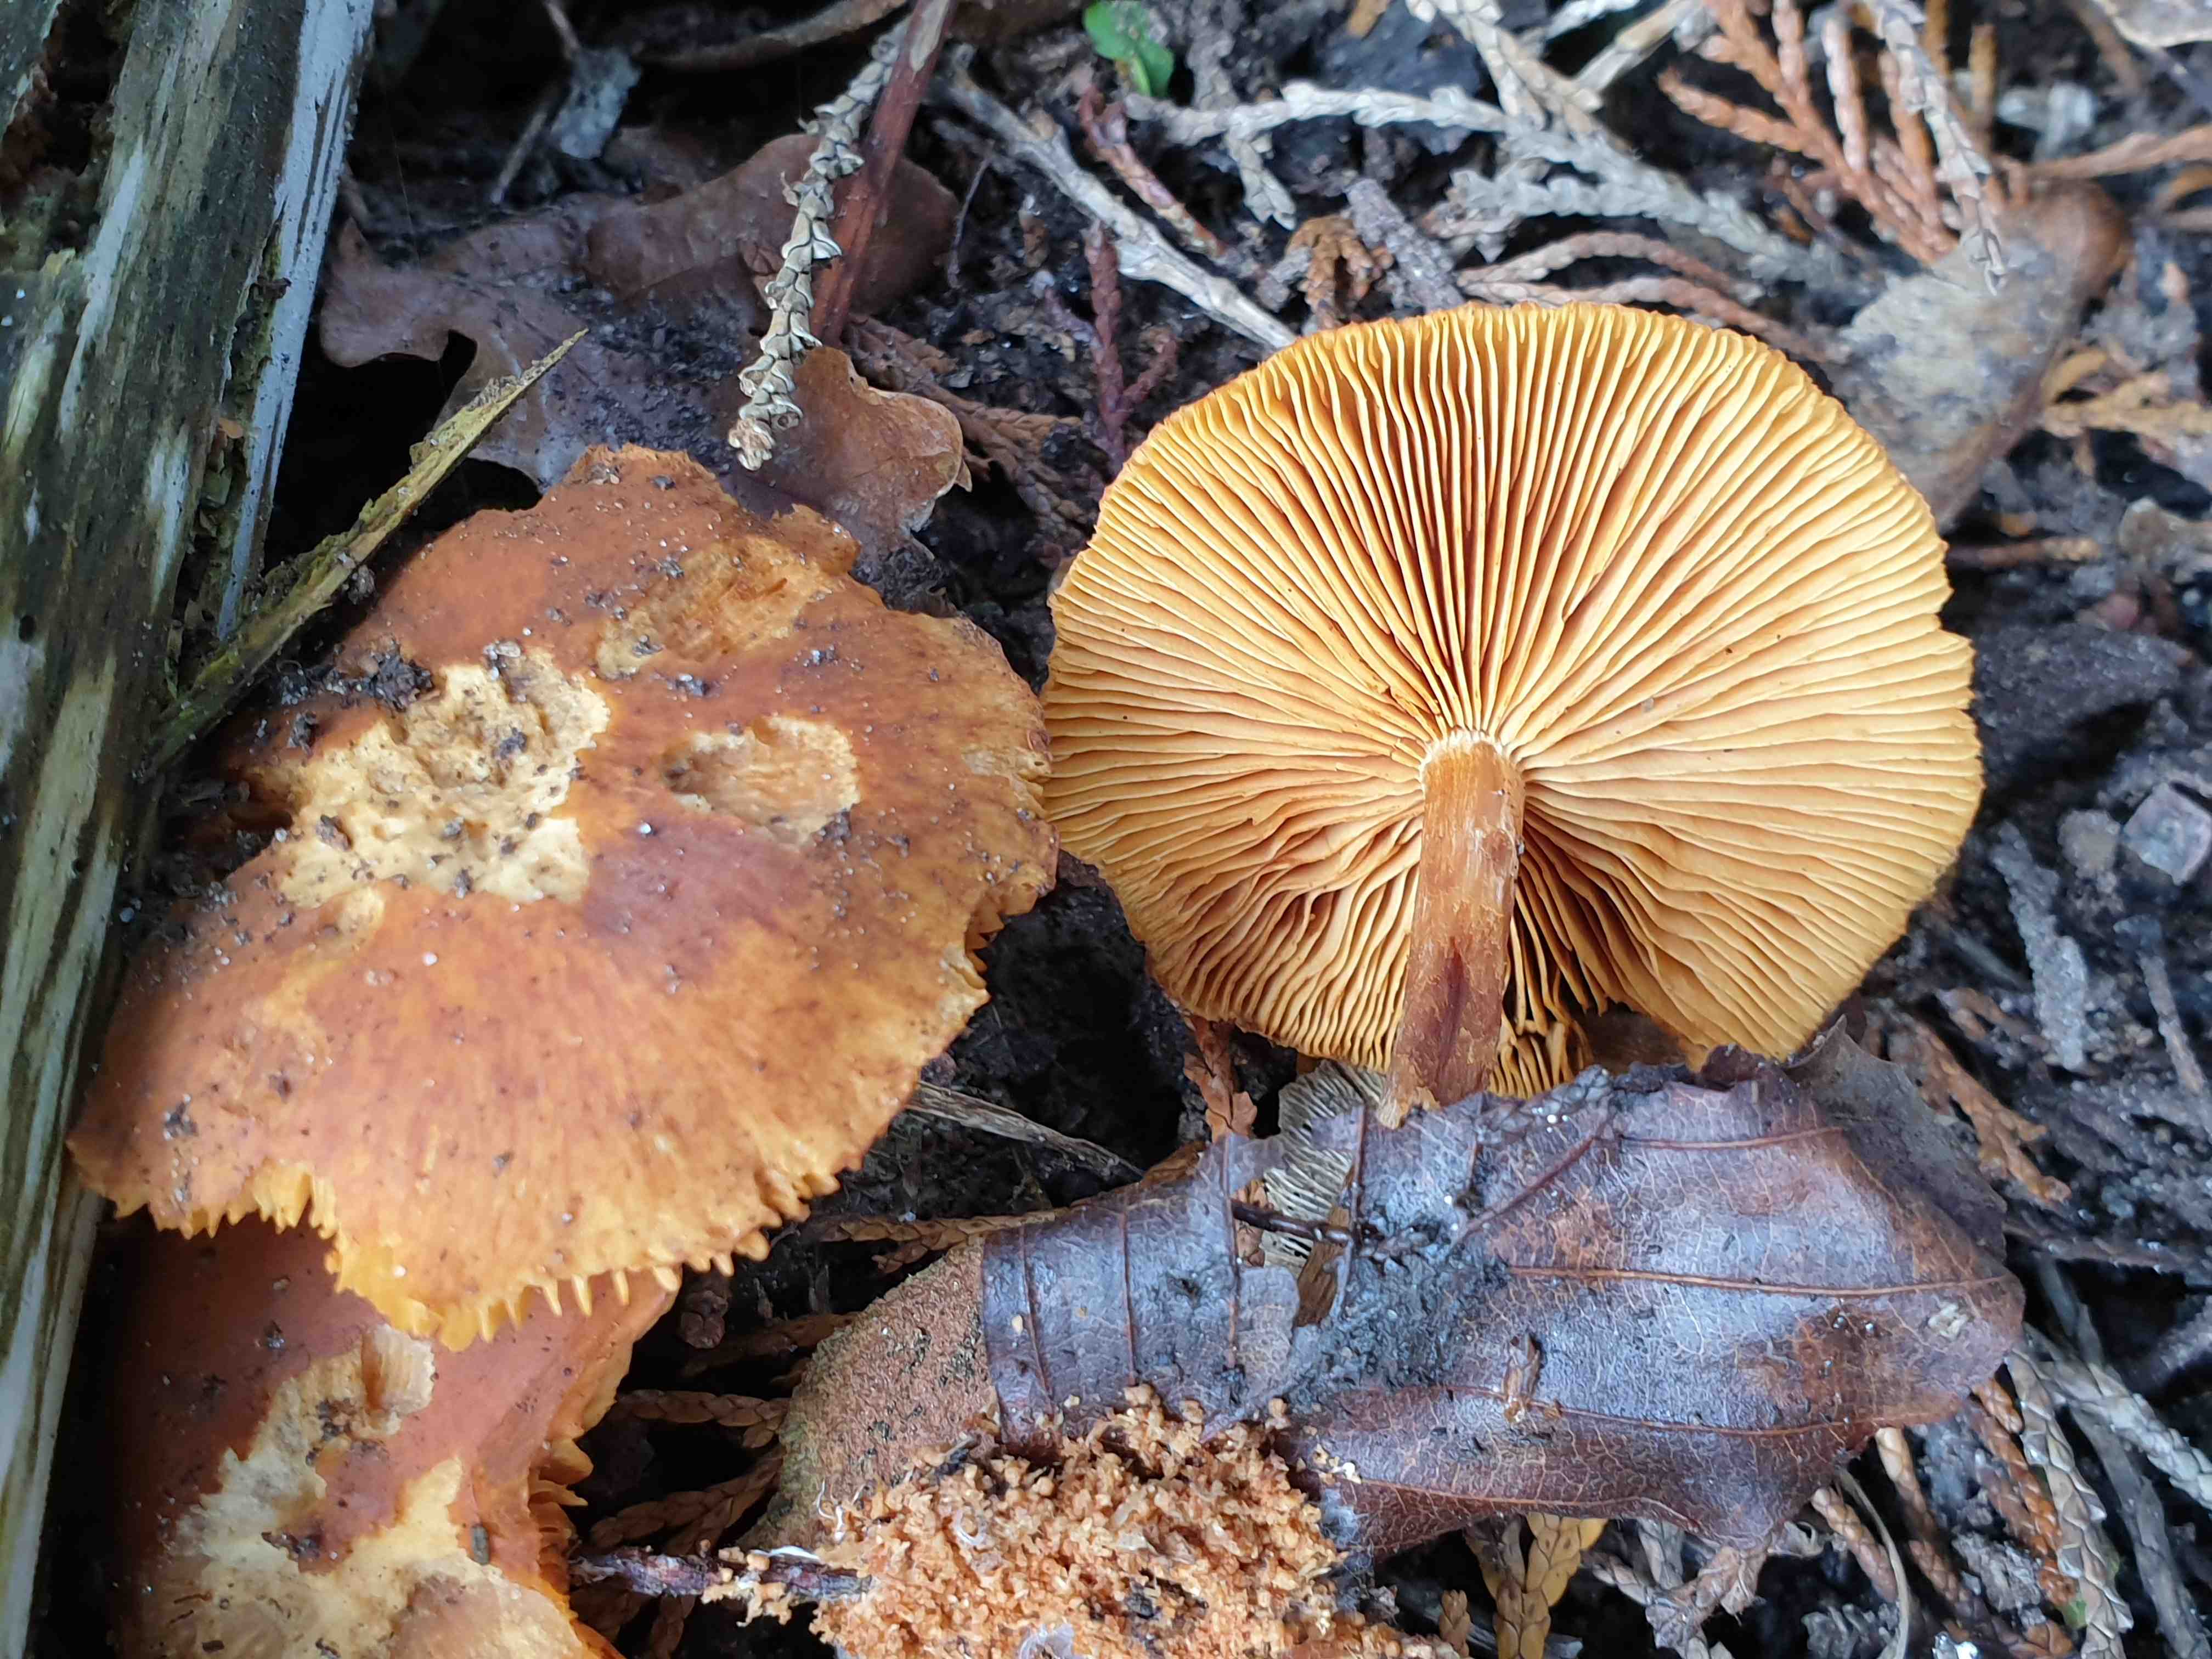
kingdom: Fungi
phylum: Basidiomycota
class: Agaricomycetes
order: Agaricales
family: Hymenogastraceae
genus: Gymnopilus
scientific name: Gymnopilus penetrans
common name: plettet flammehat
